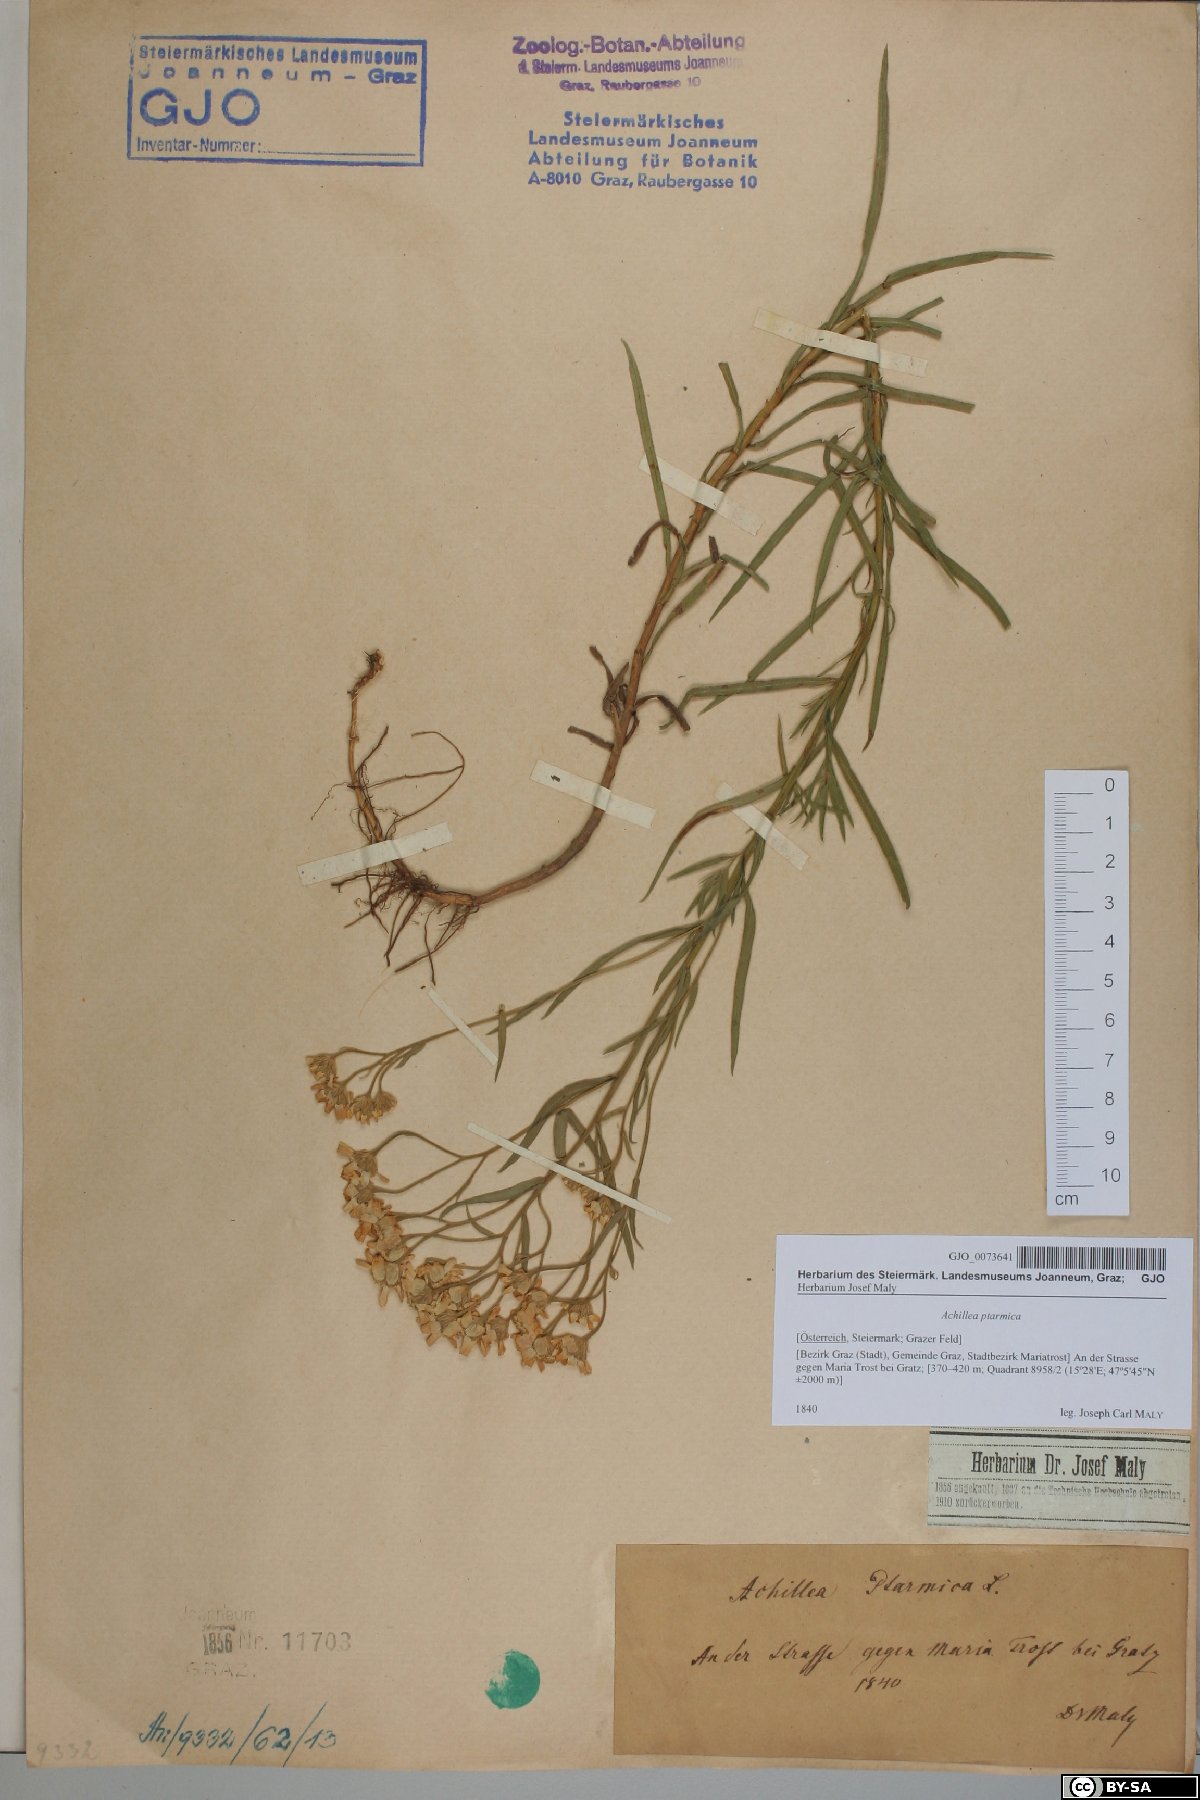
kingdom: Plantae
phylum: Tracheophyta
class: Magnoliopsida
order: Asterales
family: Asteraceae
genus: Achillea
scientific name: Achillea ptarmica
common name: Sneezeweed
